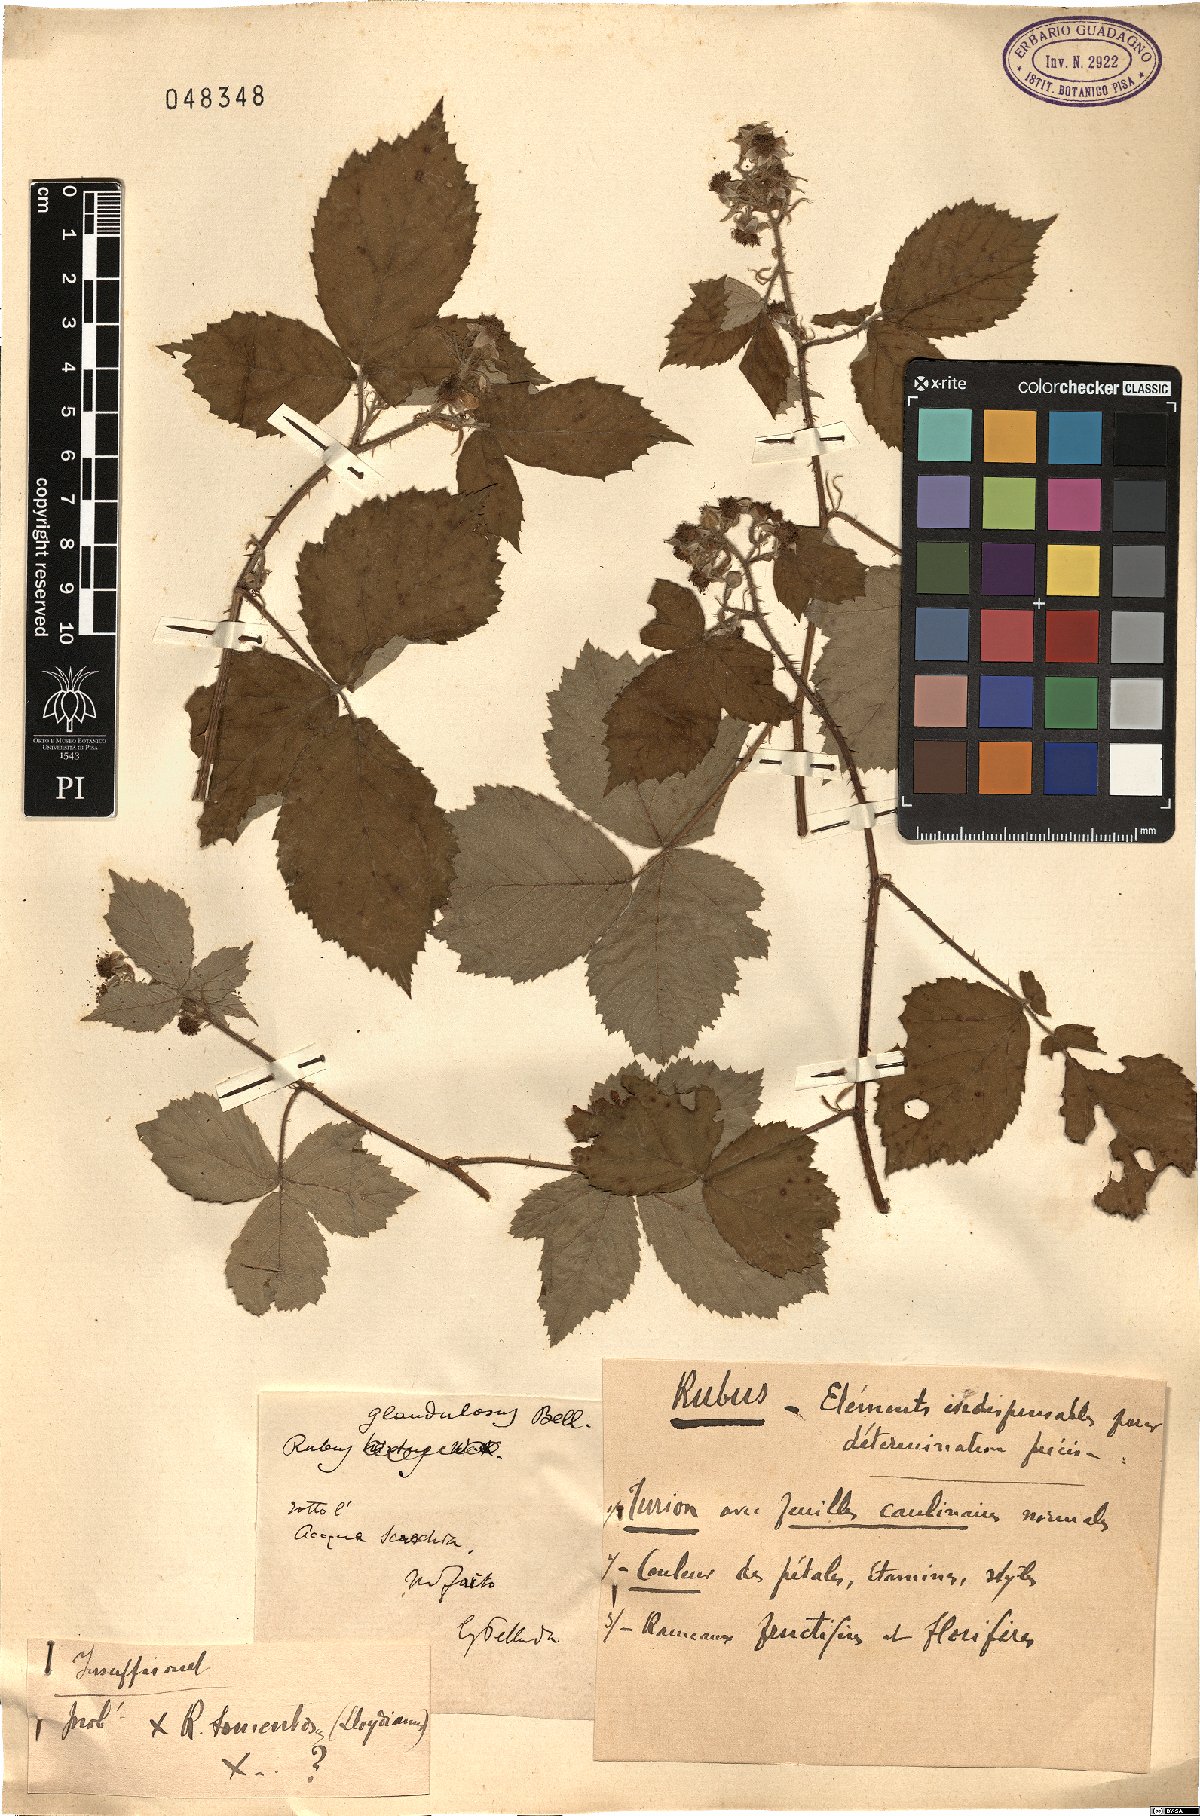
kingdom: Plantae
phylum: Tracheophyta
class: Magnoliopsida
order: Rosales
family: Rosaceae
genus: Rubus
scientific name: Rubus occidentalis
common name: Black raspberry
